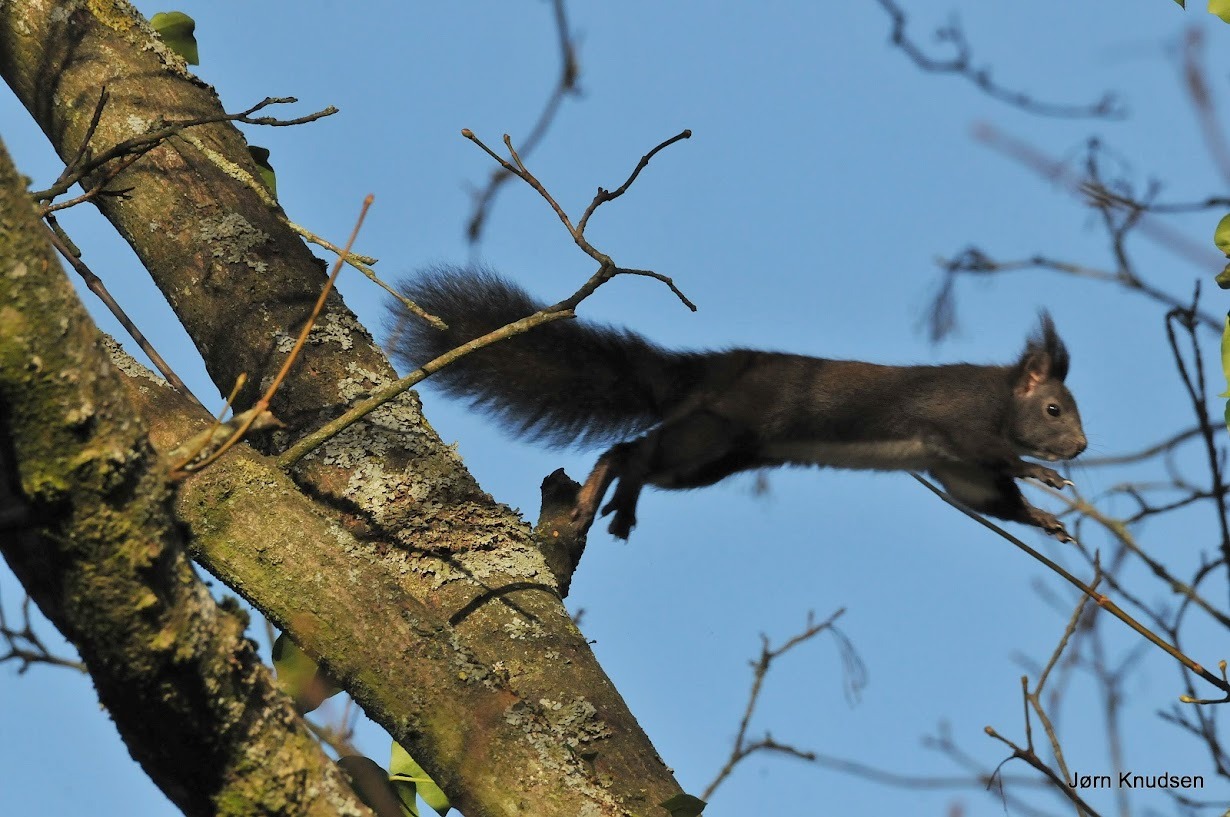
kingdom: Animalia
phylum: Chordata
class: Mammalia
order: Rodentia
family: Sciuridae
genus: Sciurus
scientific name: Sciurus vulgaris
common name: Egern
